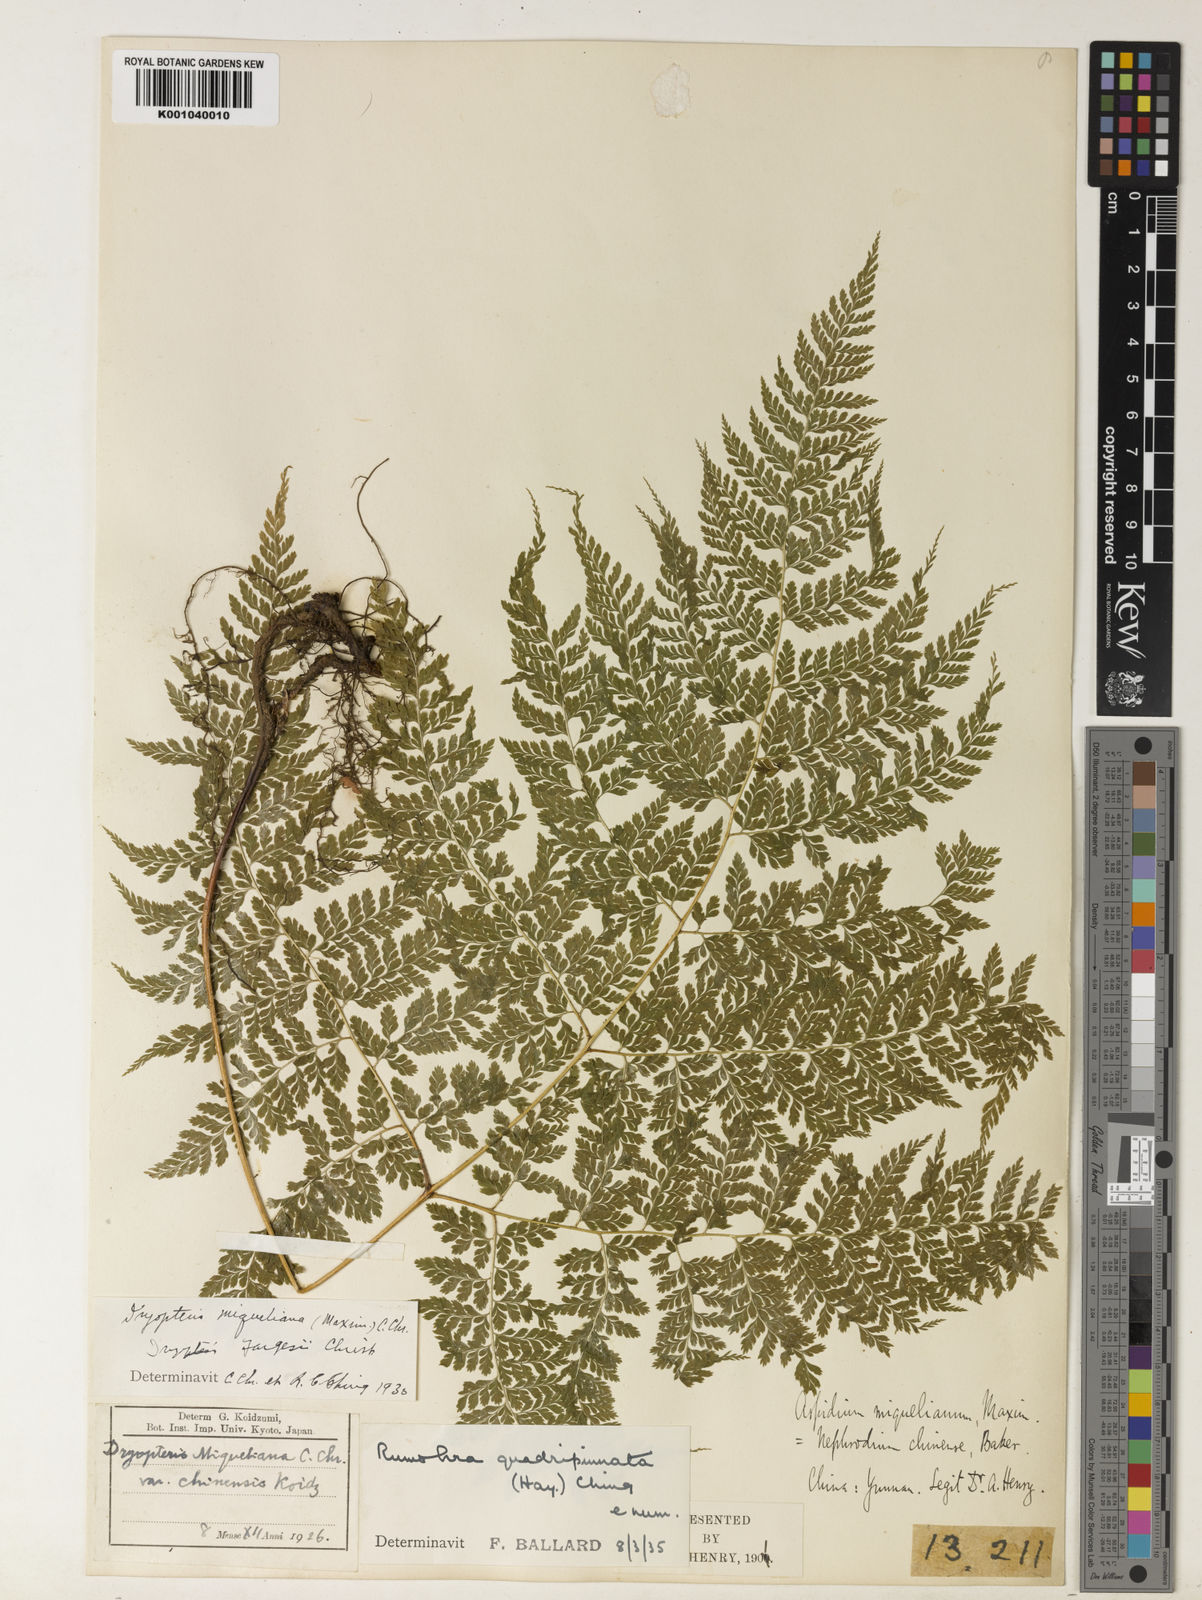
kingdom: Plantae
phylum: Tracheophyta
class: Polypodiopsida
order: Polypodiales
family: Dryopteridaceae
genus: Arachniodes
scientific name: Arachniodes quadripinnata
